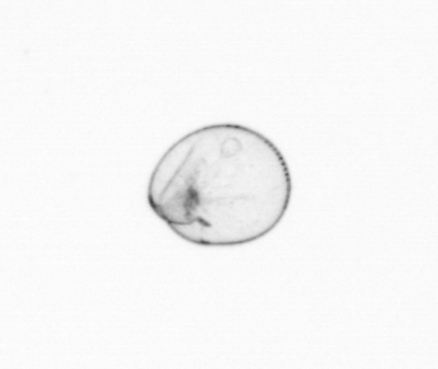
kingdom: Chromista
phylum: Myzozoa
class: Dinophyceae
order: Noctilucales
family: Noctilucaceae
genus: Noctiluca
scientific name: Noctiluca scintillans
